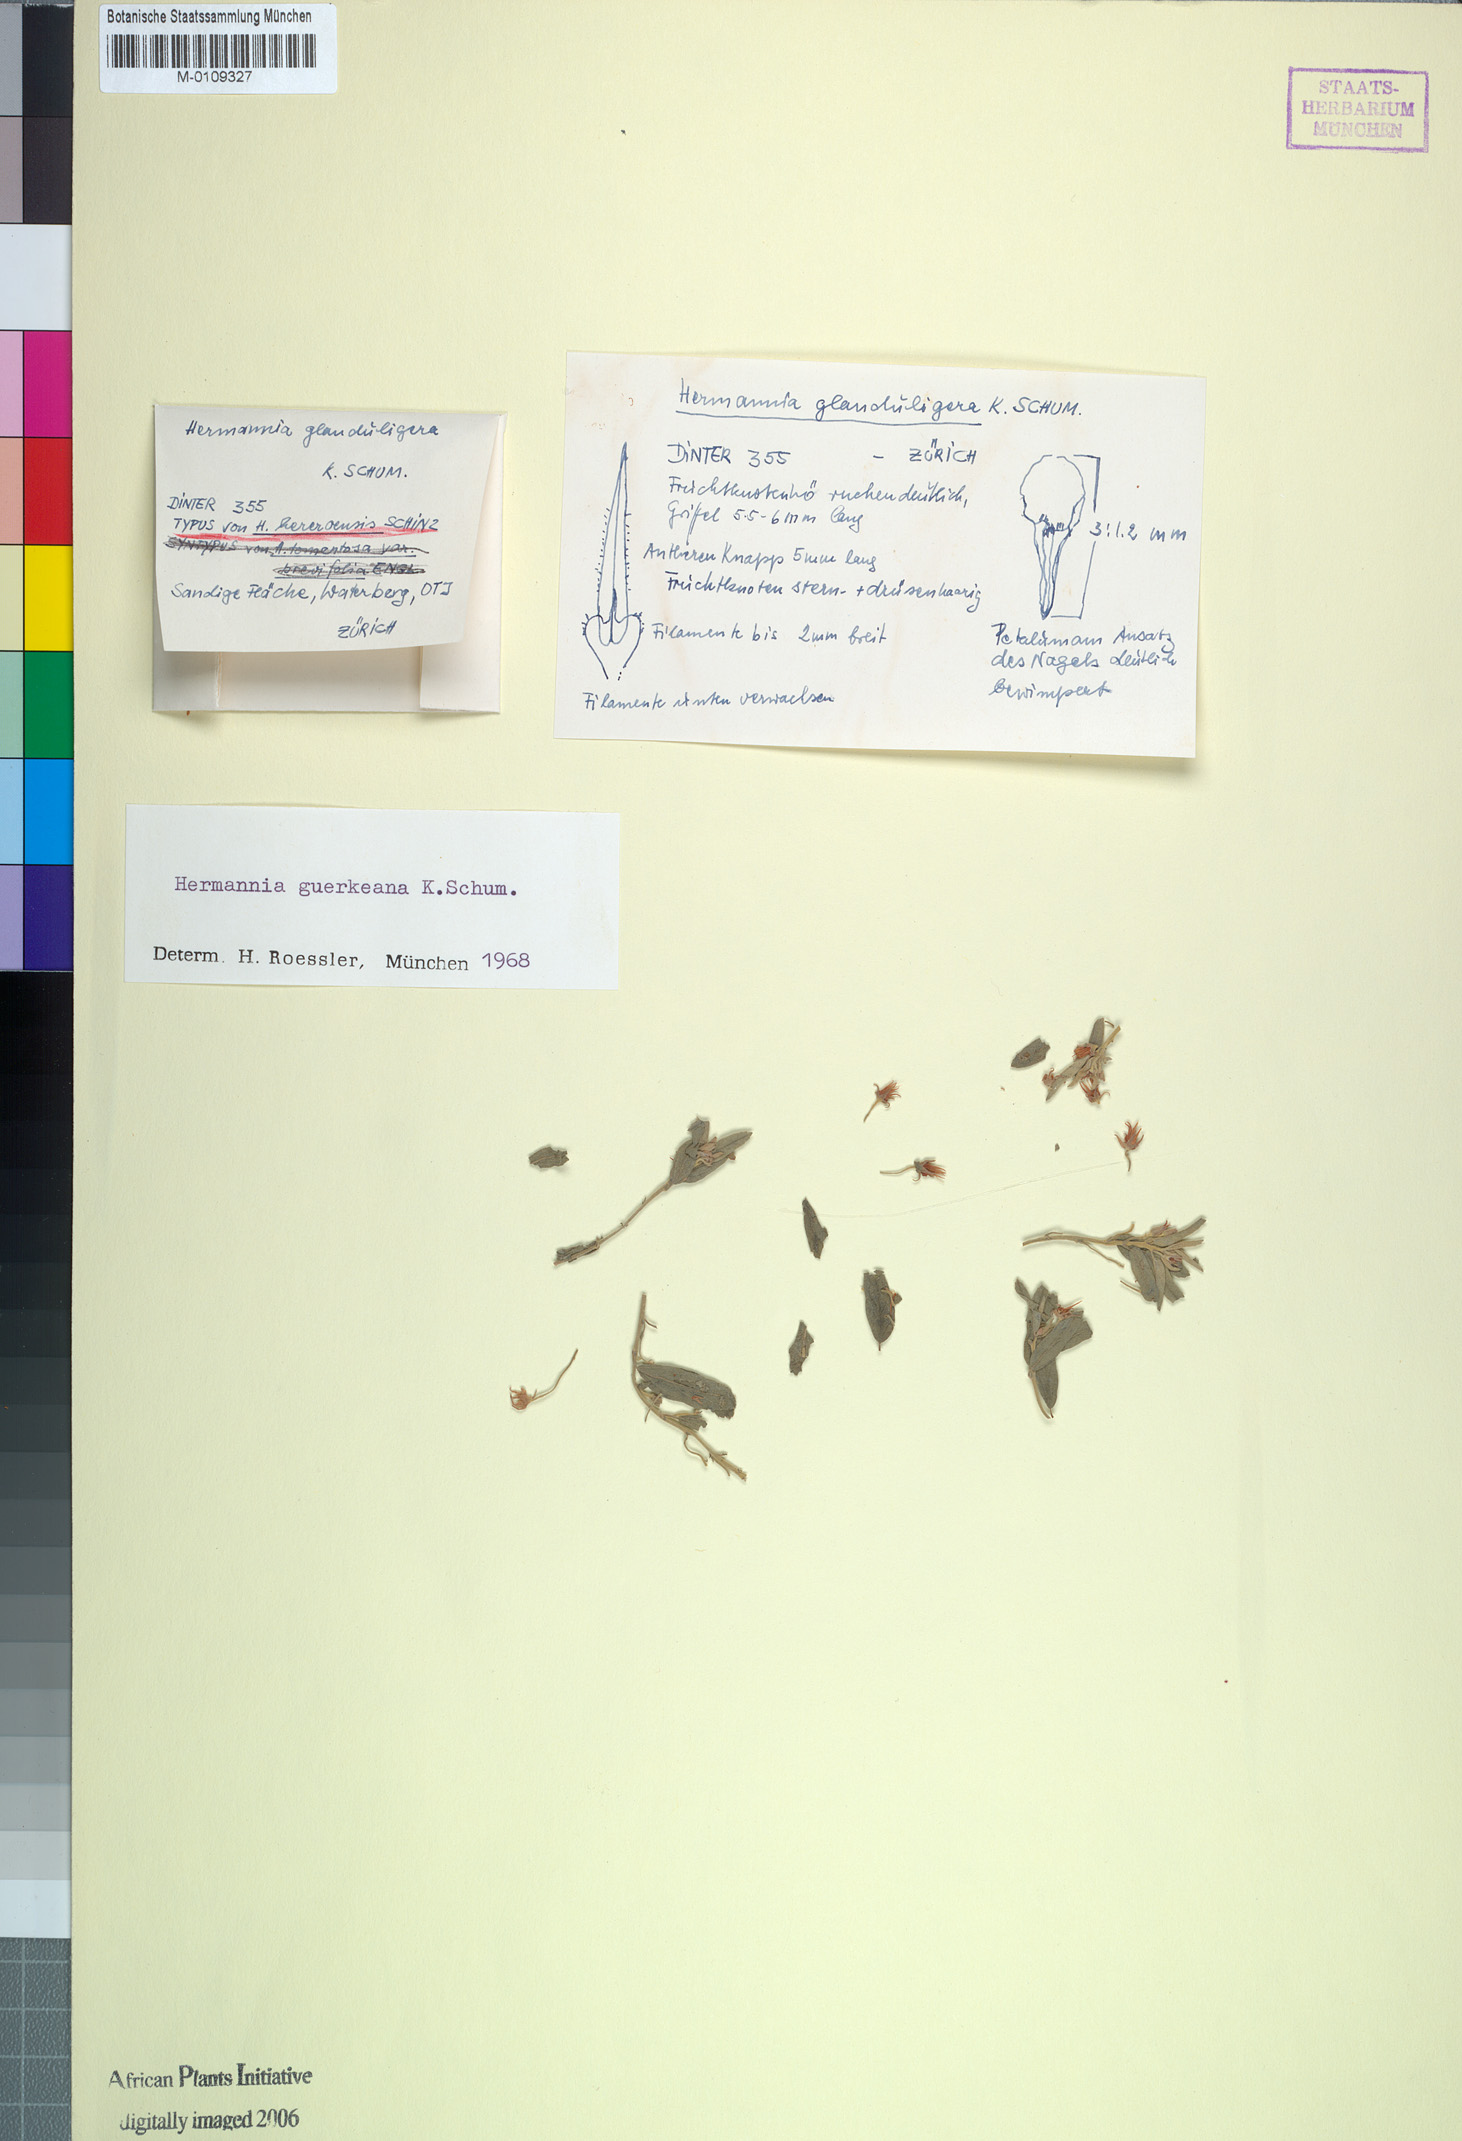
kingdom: Plantae
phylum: Tracheophyta
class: Magnoliopsida
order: Malvales
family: Malvaceae
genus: Hermannia
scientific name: Hermannia guerkeana
